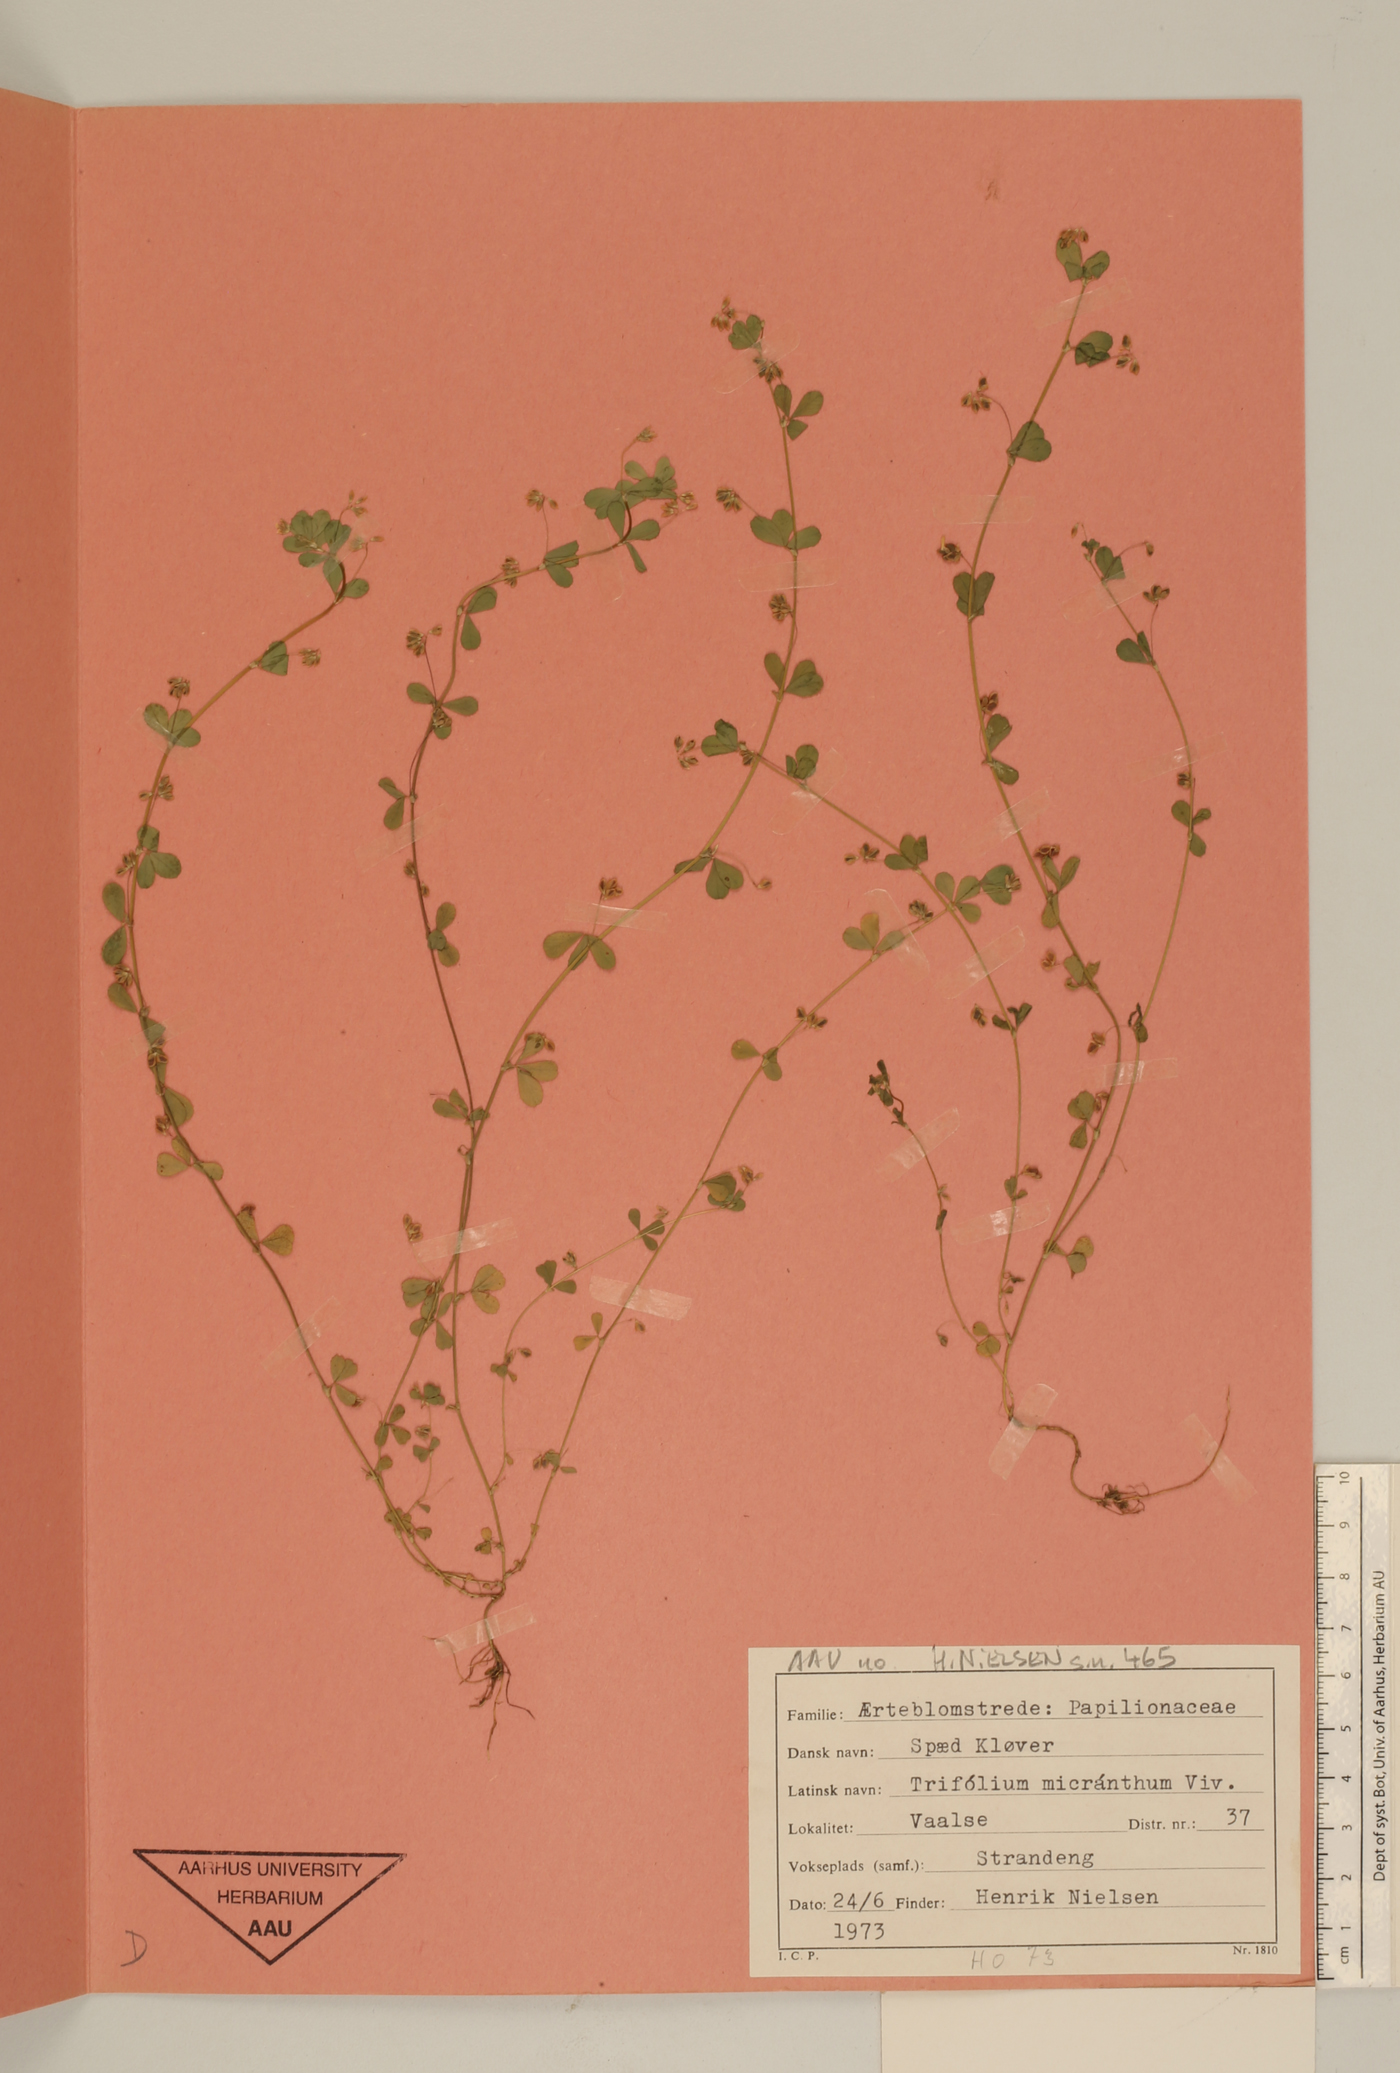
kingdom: Plantae
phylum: Tracheophyta
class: Magnoliopsida
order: Fabales
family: Fabaceae
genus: Trifolium
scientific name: Trifolium dubium
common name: Suckling clover
